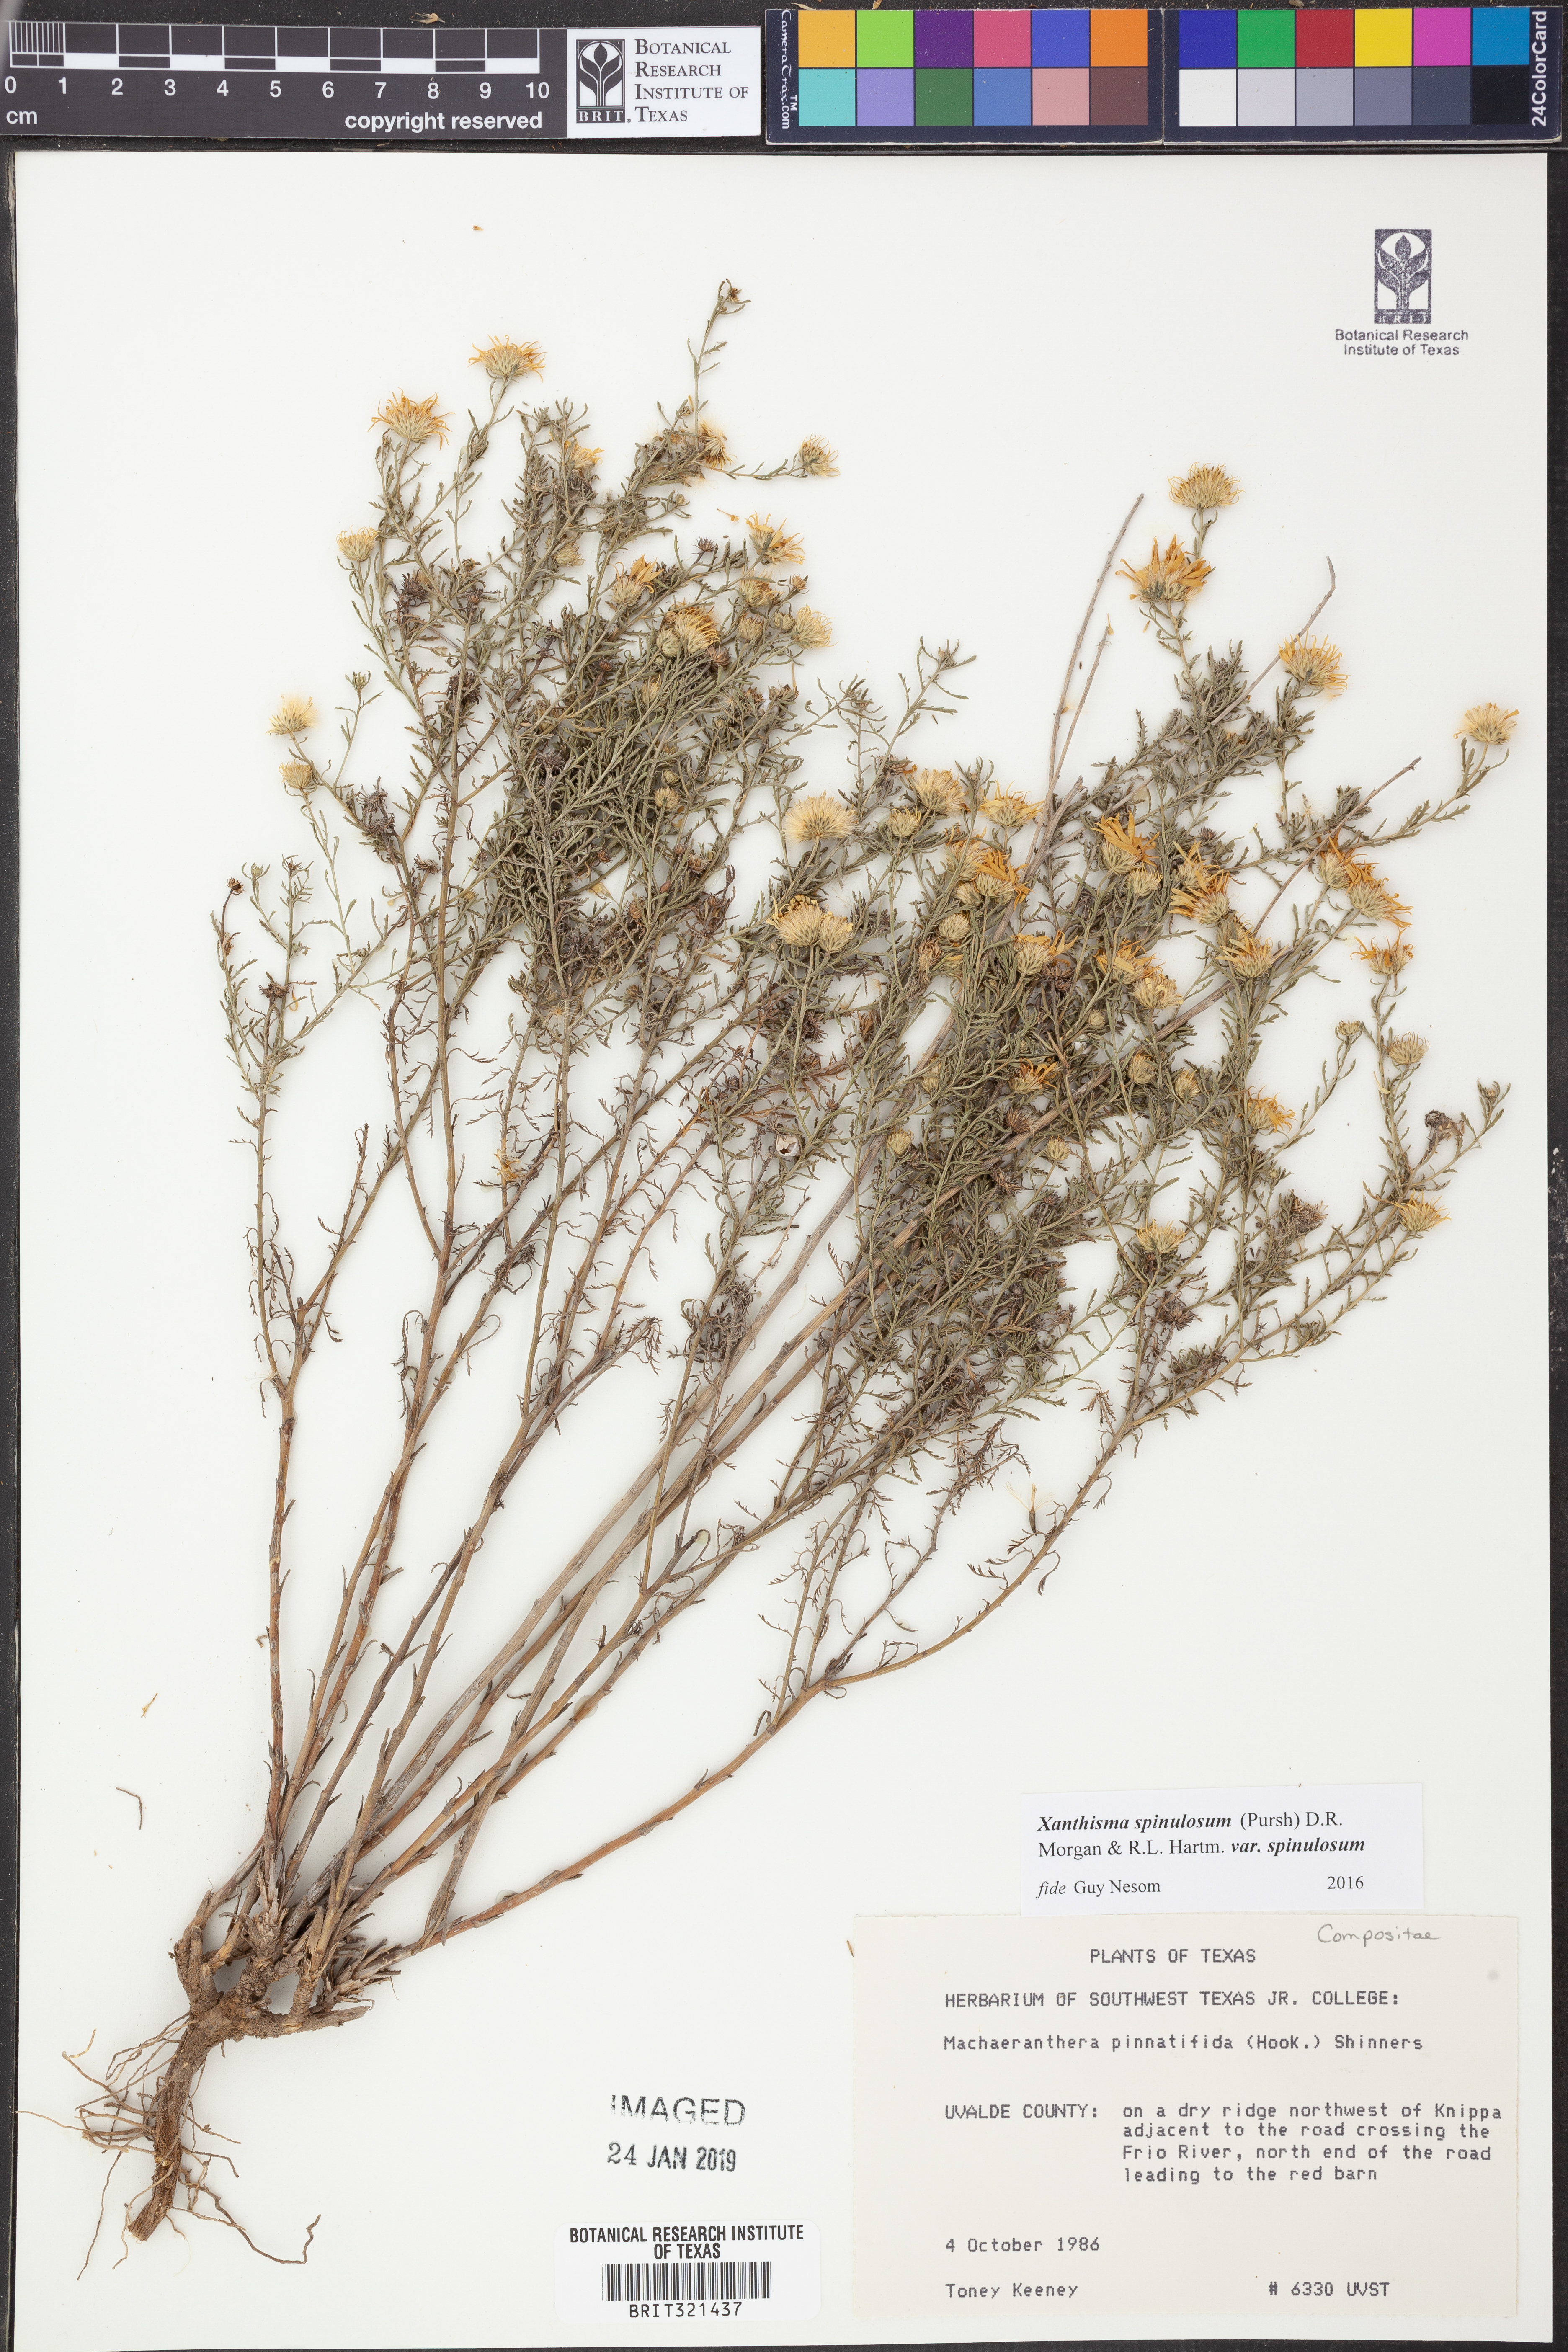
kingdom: Plantae
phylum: Tracheophyta
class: Magnoliopsida
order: Asterales
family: Asteraceae
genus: Xanthisma
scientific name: Xanthisma spinulosum
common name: Spiny goldenweed
